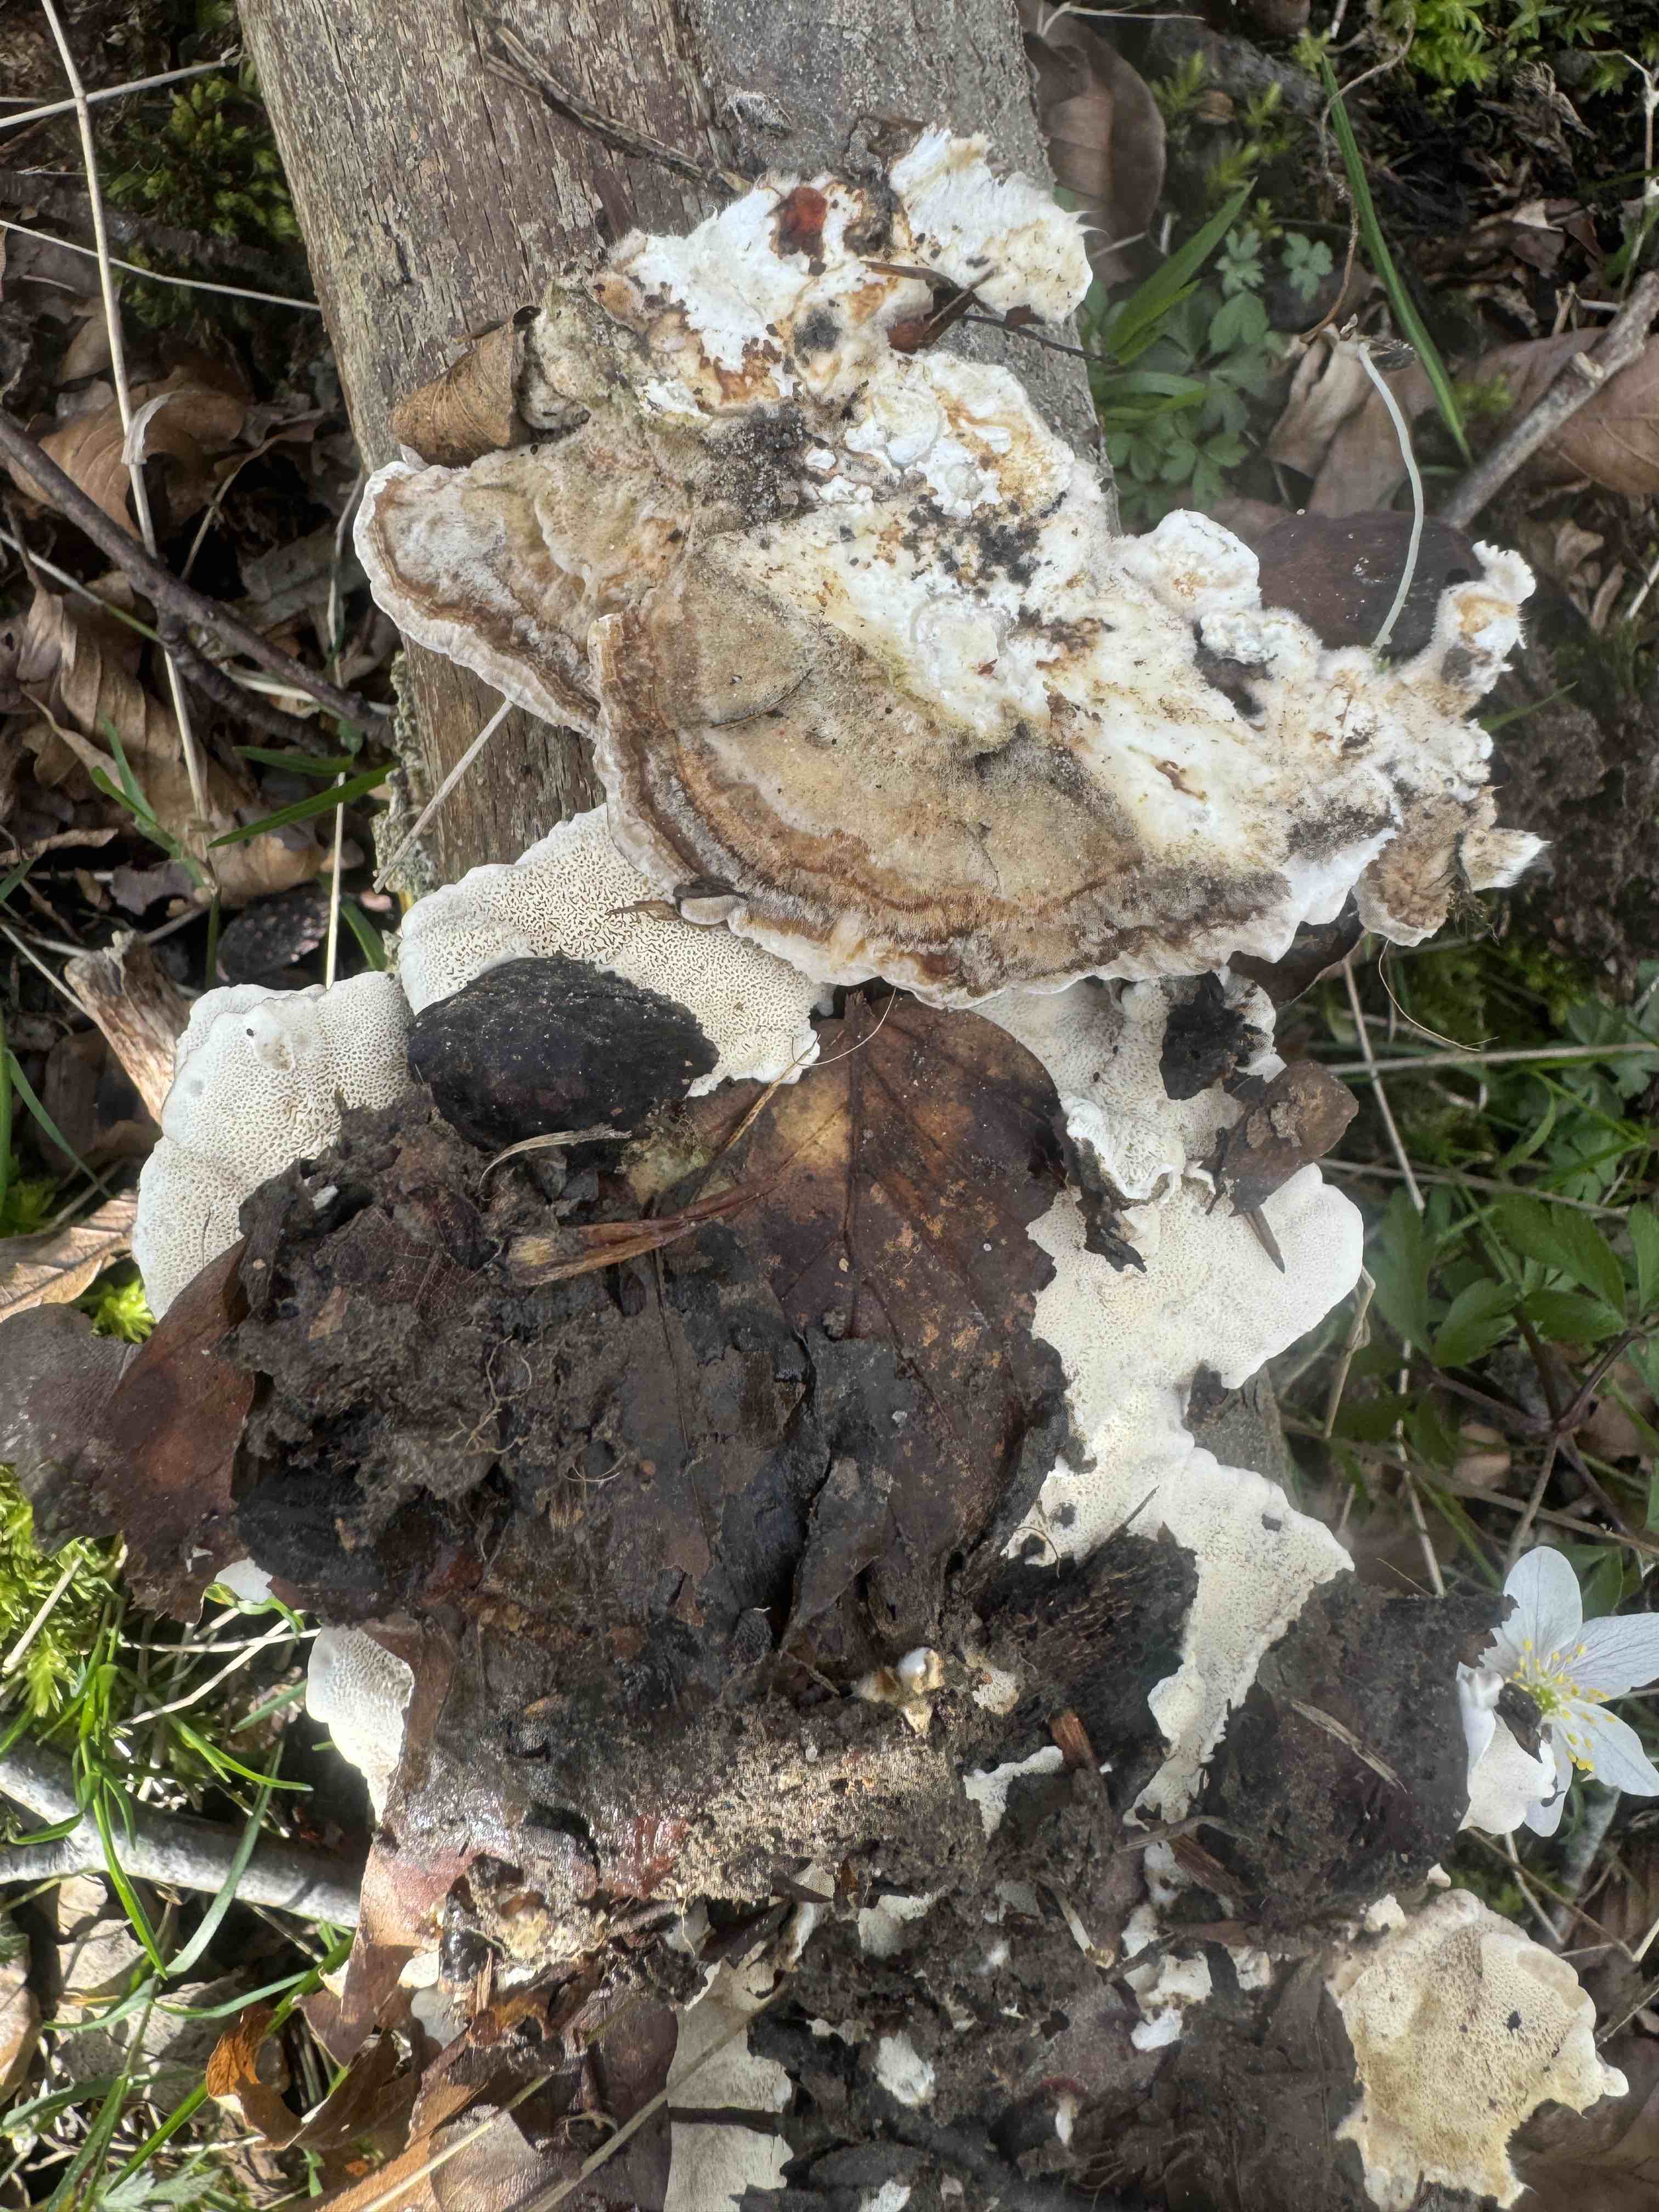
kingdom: Fungi
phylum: Basidiomycota
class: Agaricomycetes
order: Polyporales
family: Polyporaceae
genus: Trametes
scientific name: Trametes ochracea
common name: bæltet læderporesvamp
